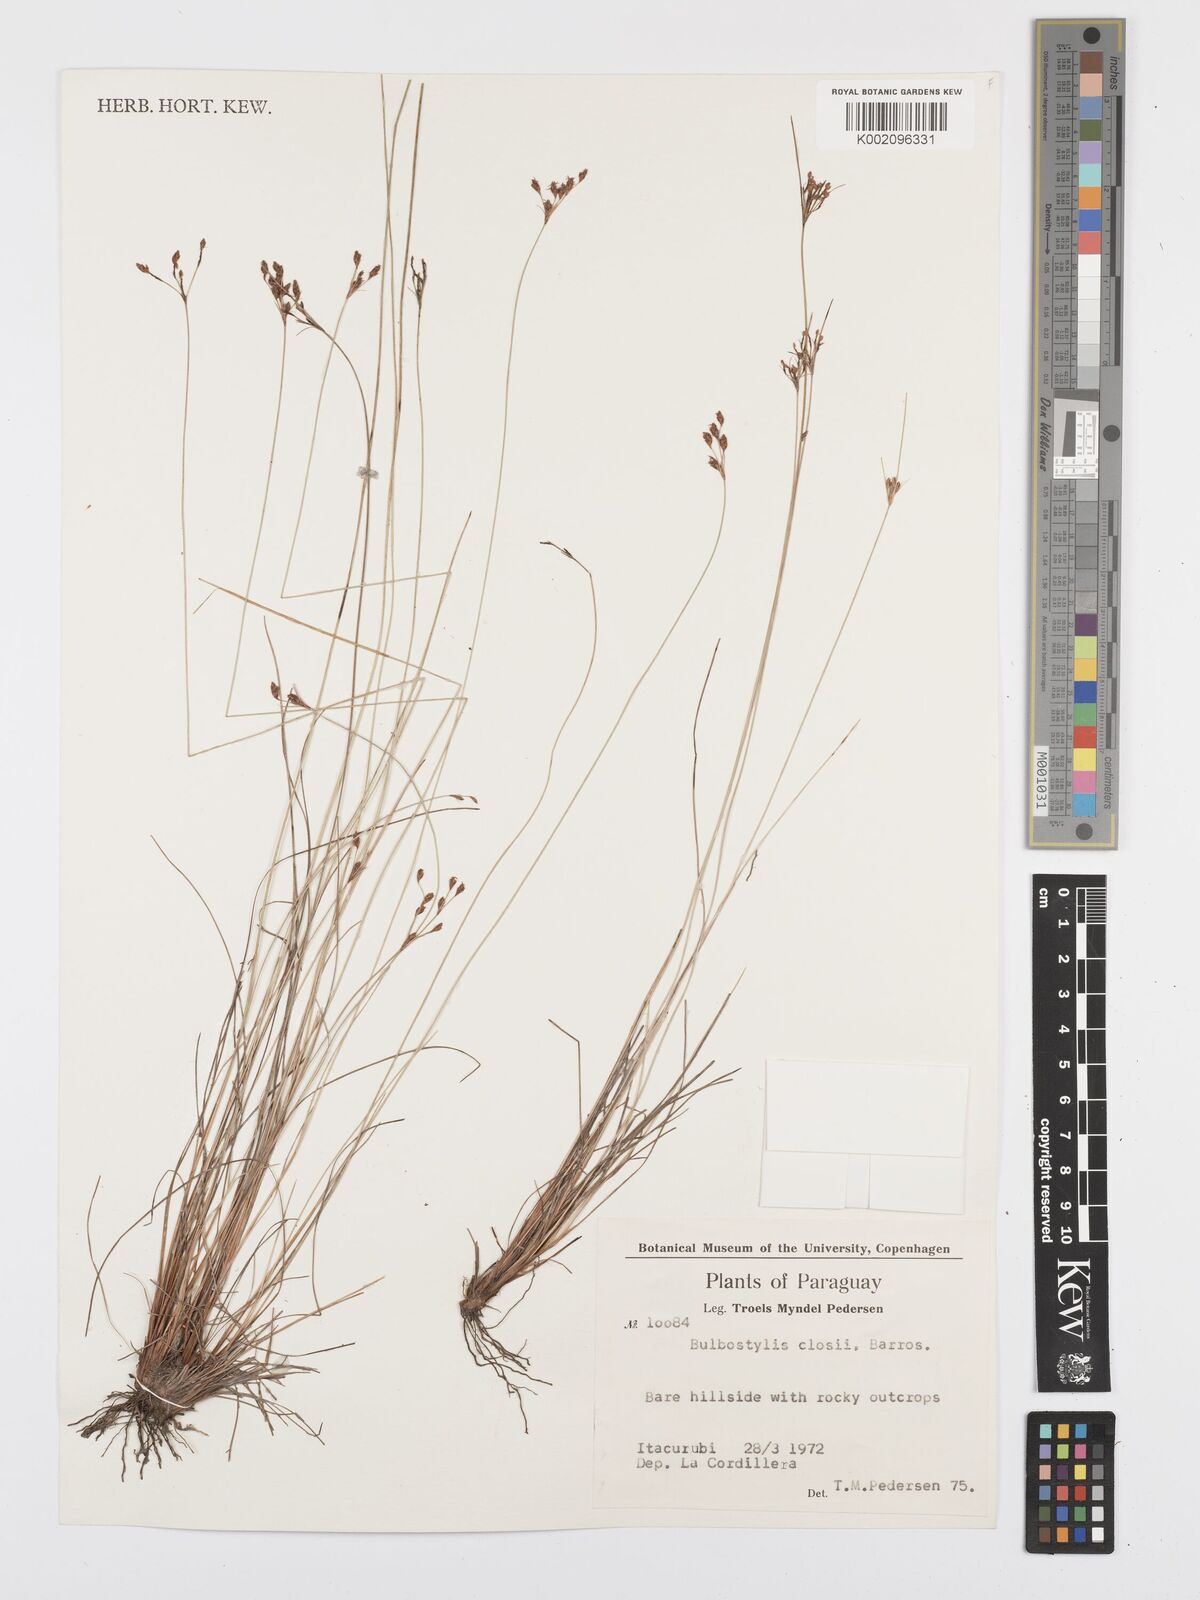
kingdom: Plantae
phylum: Tracheophyta
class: Liliopsida
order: Poales
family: Cyperaceae
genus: Bulbostylis
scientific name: Bulbostylis major
